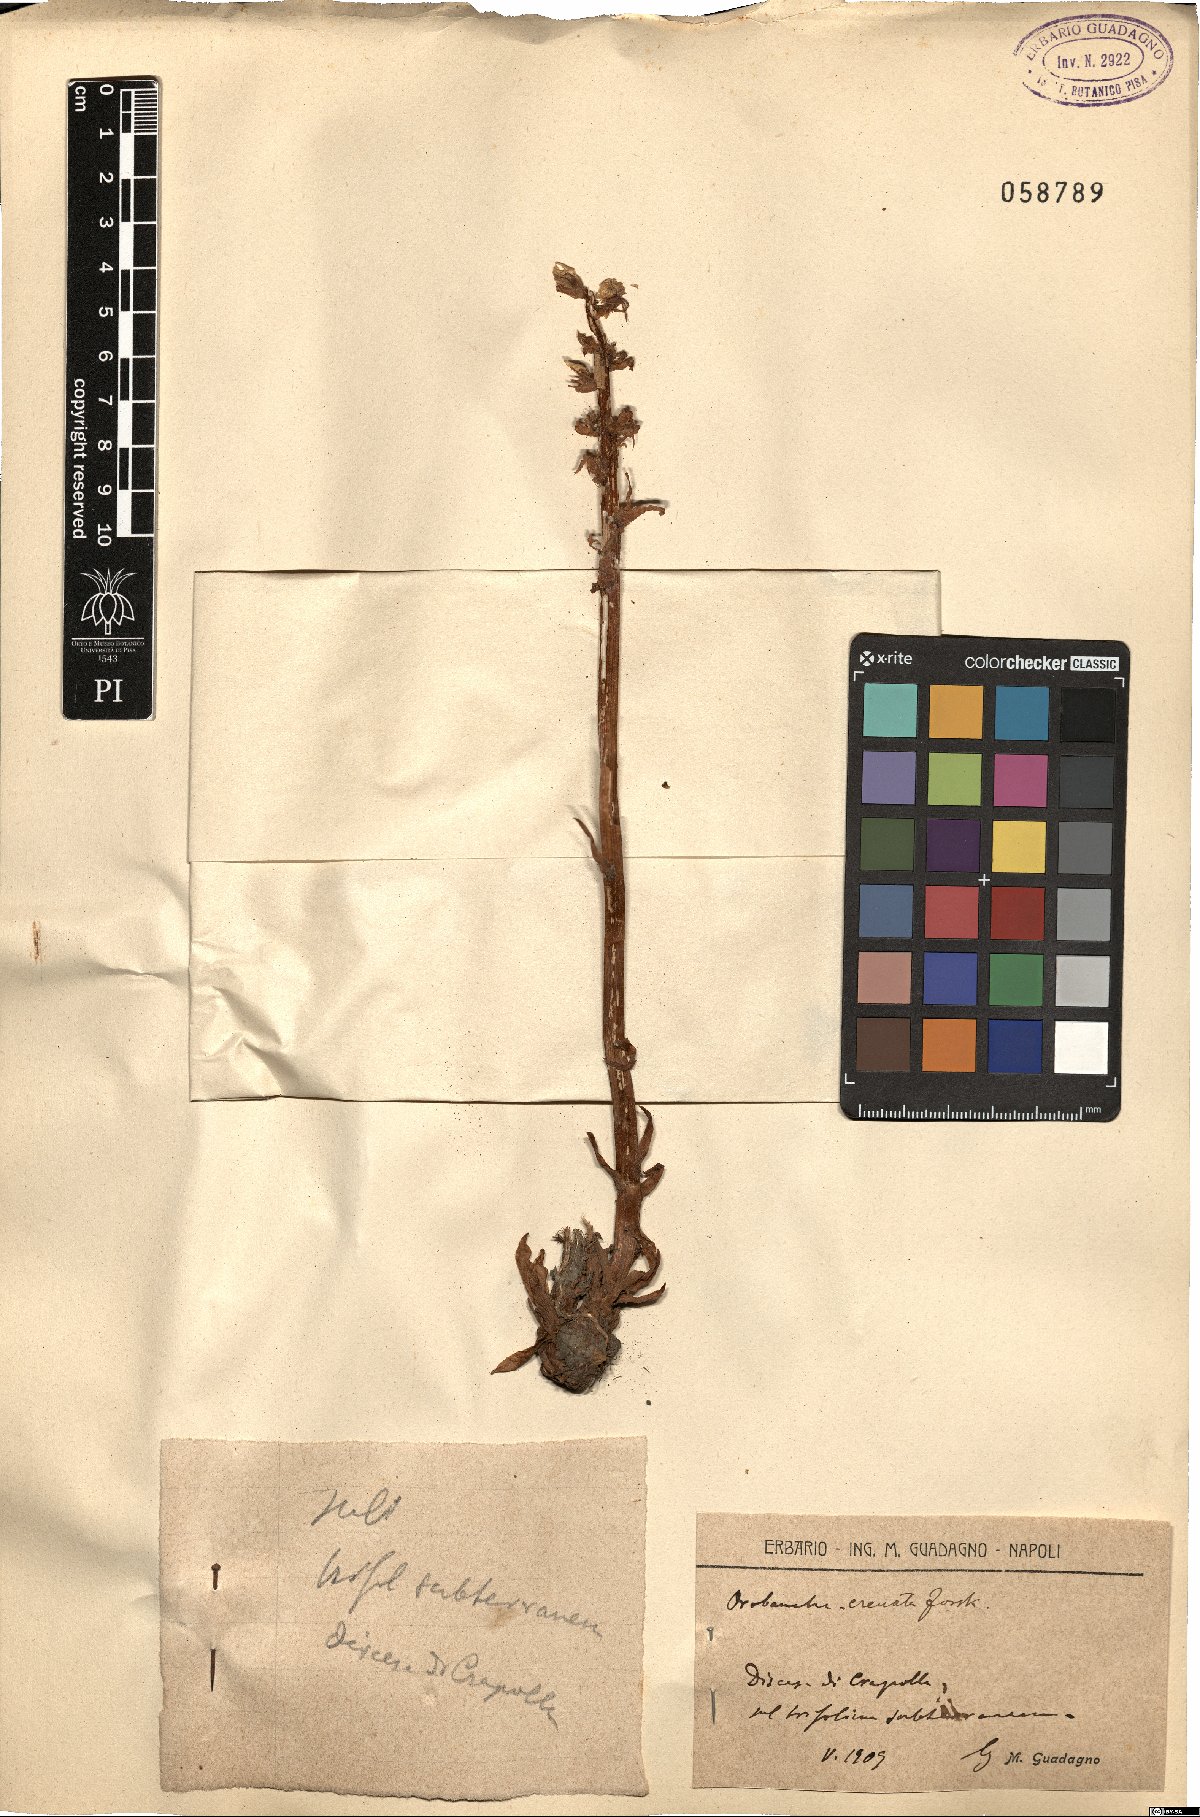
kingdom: Plantae
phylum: Tracheophyta
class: Magnoliopsida
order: Lamiales
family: Orobanchaceae
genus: Orobanche
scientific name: Orobanche crenata
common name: Bean broomrape
